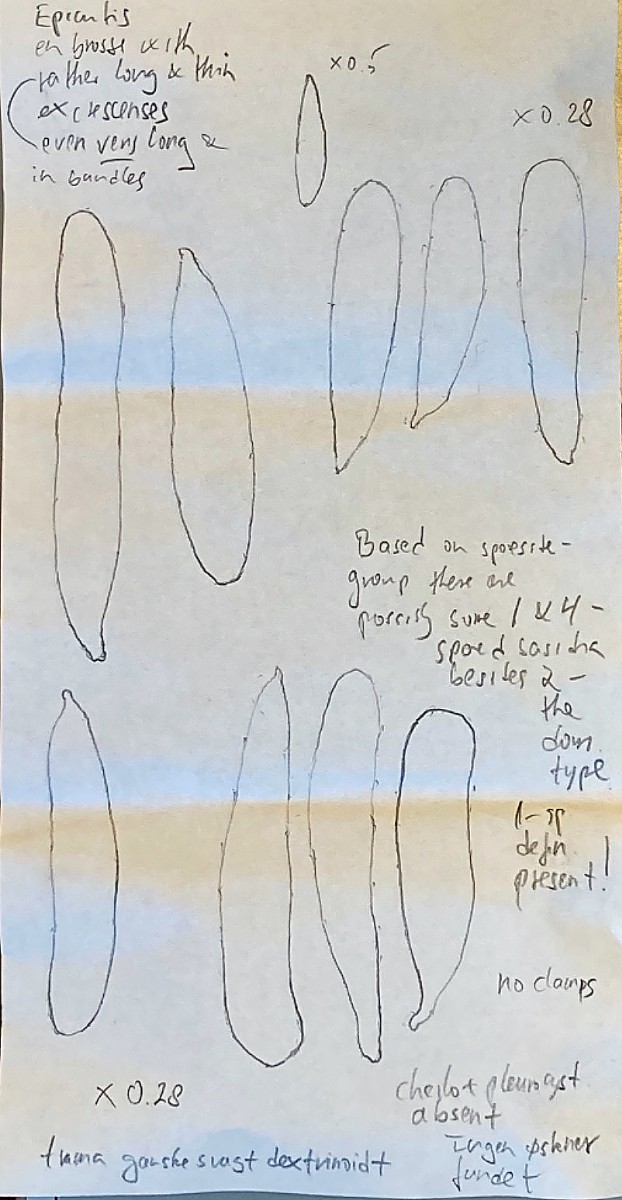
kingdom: Fungi
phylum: Basidiomycota
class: Agaricomycetes
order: Agaricales
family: Mycenaceae
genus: Hemimycena
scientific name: Hemimycena stiriispora
